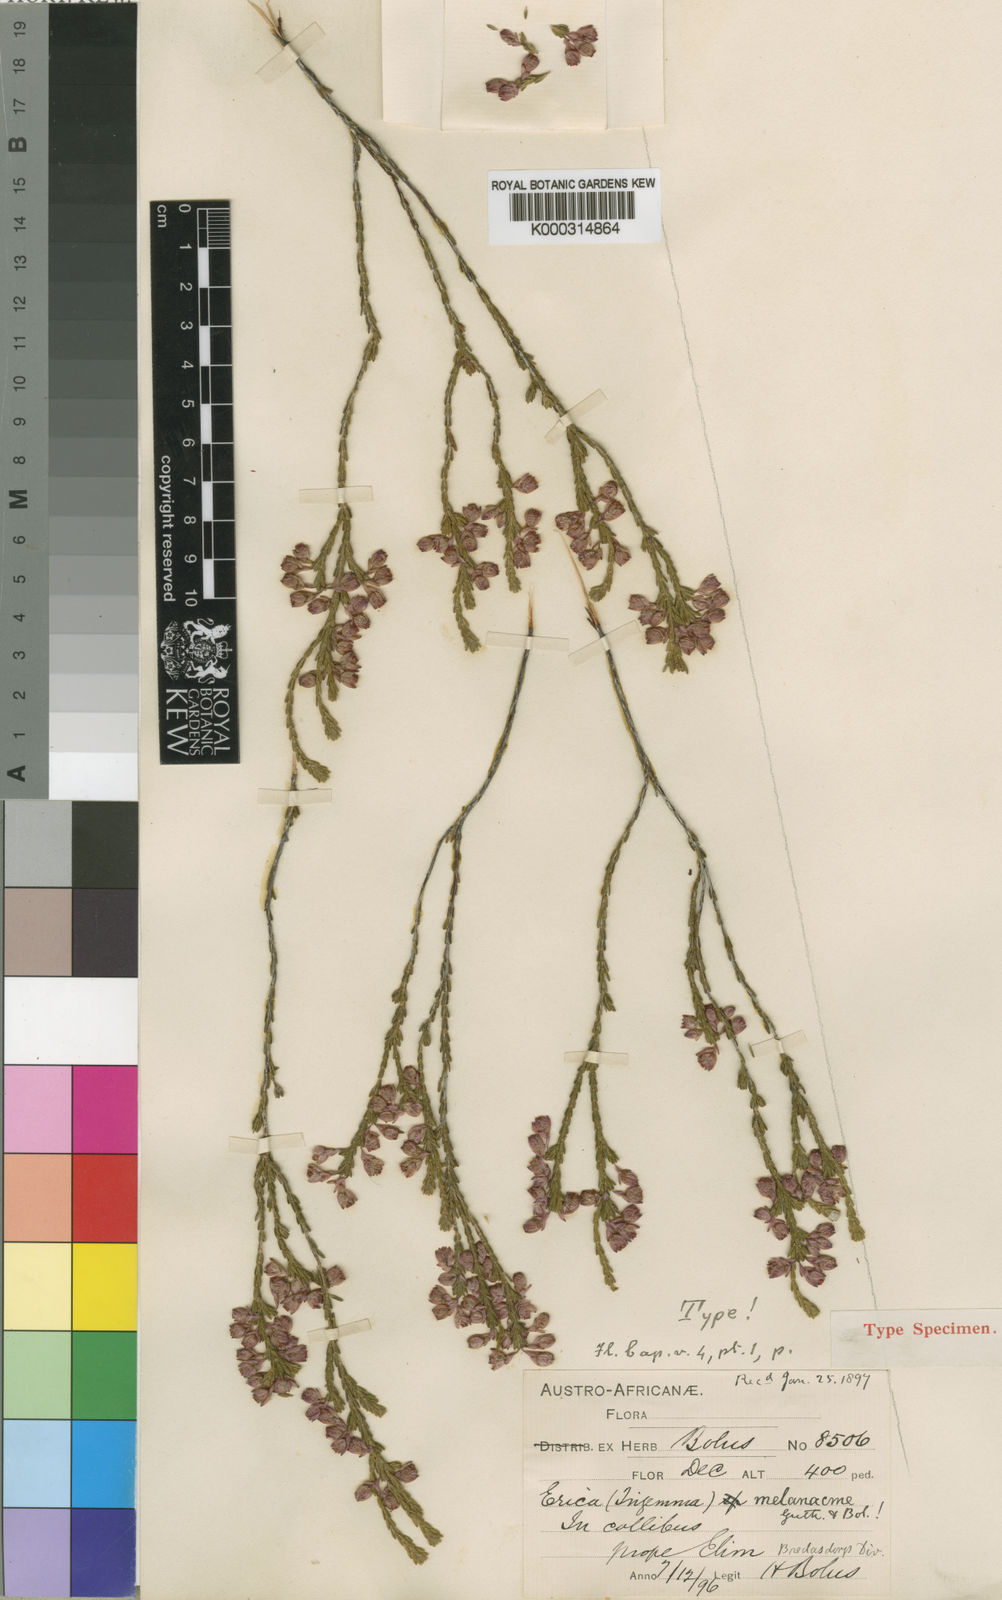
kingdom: Plantae
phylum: Tracheophyta
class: Magnoliopsida
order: Ericales
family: Ericaceae
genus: Erica
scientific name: Erica melanacme
